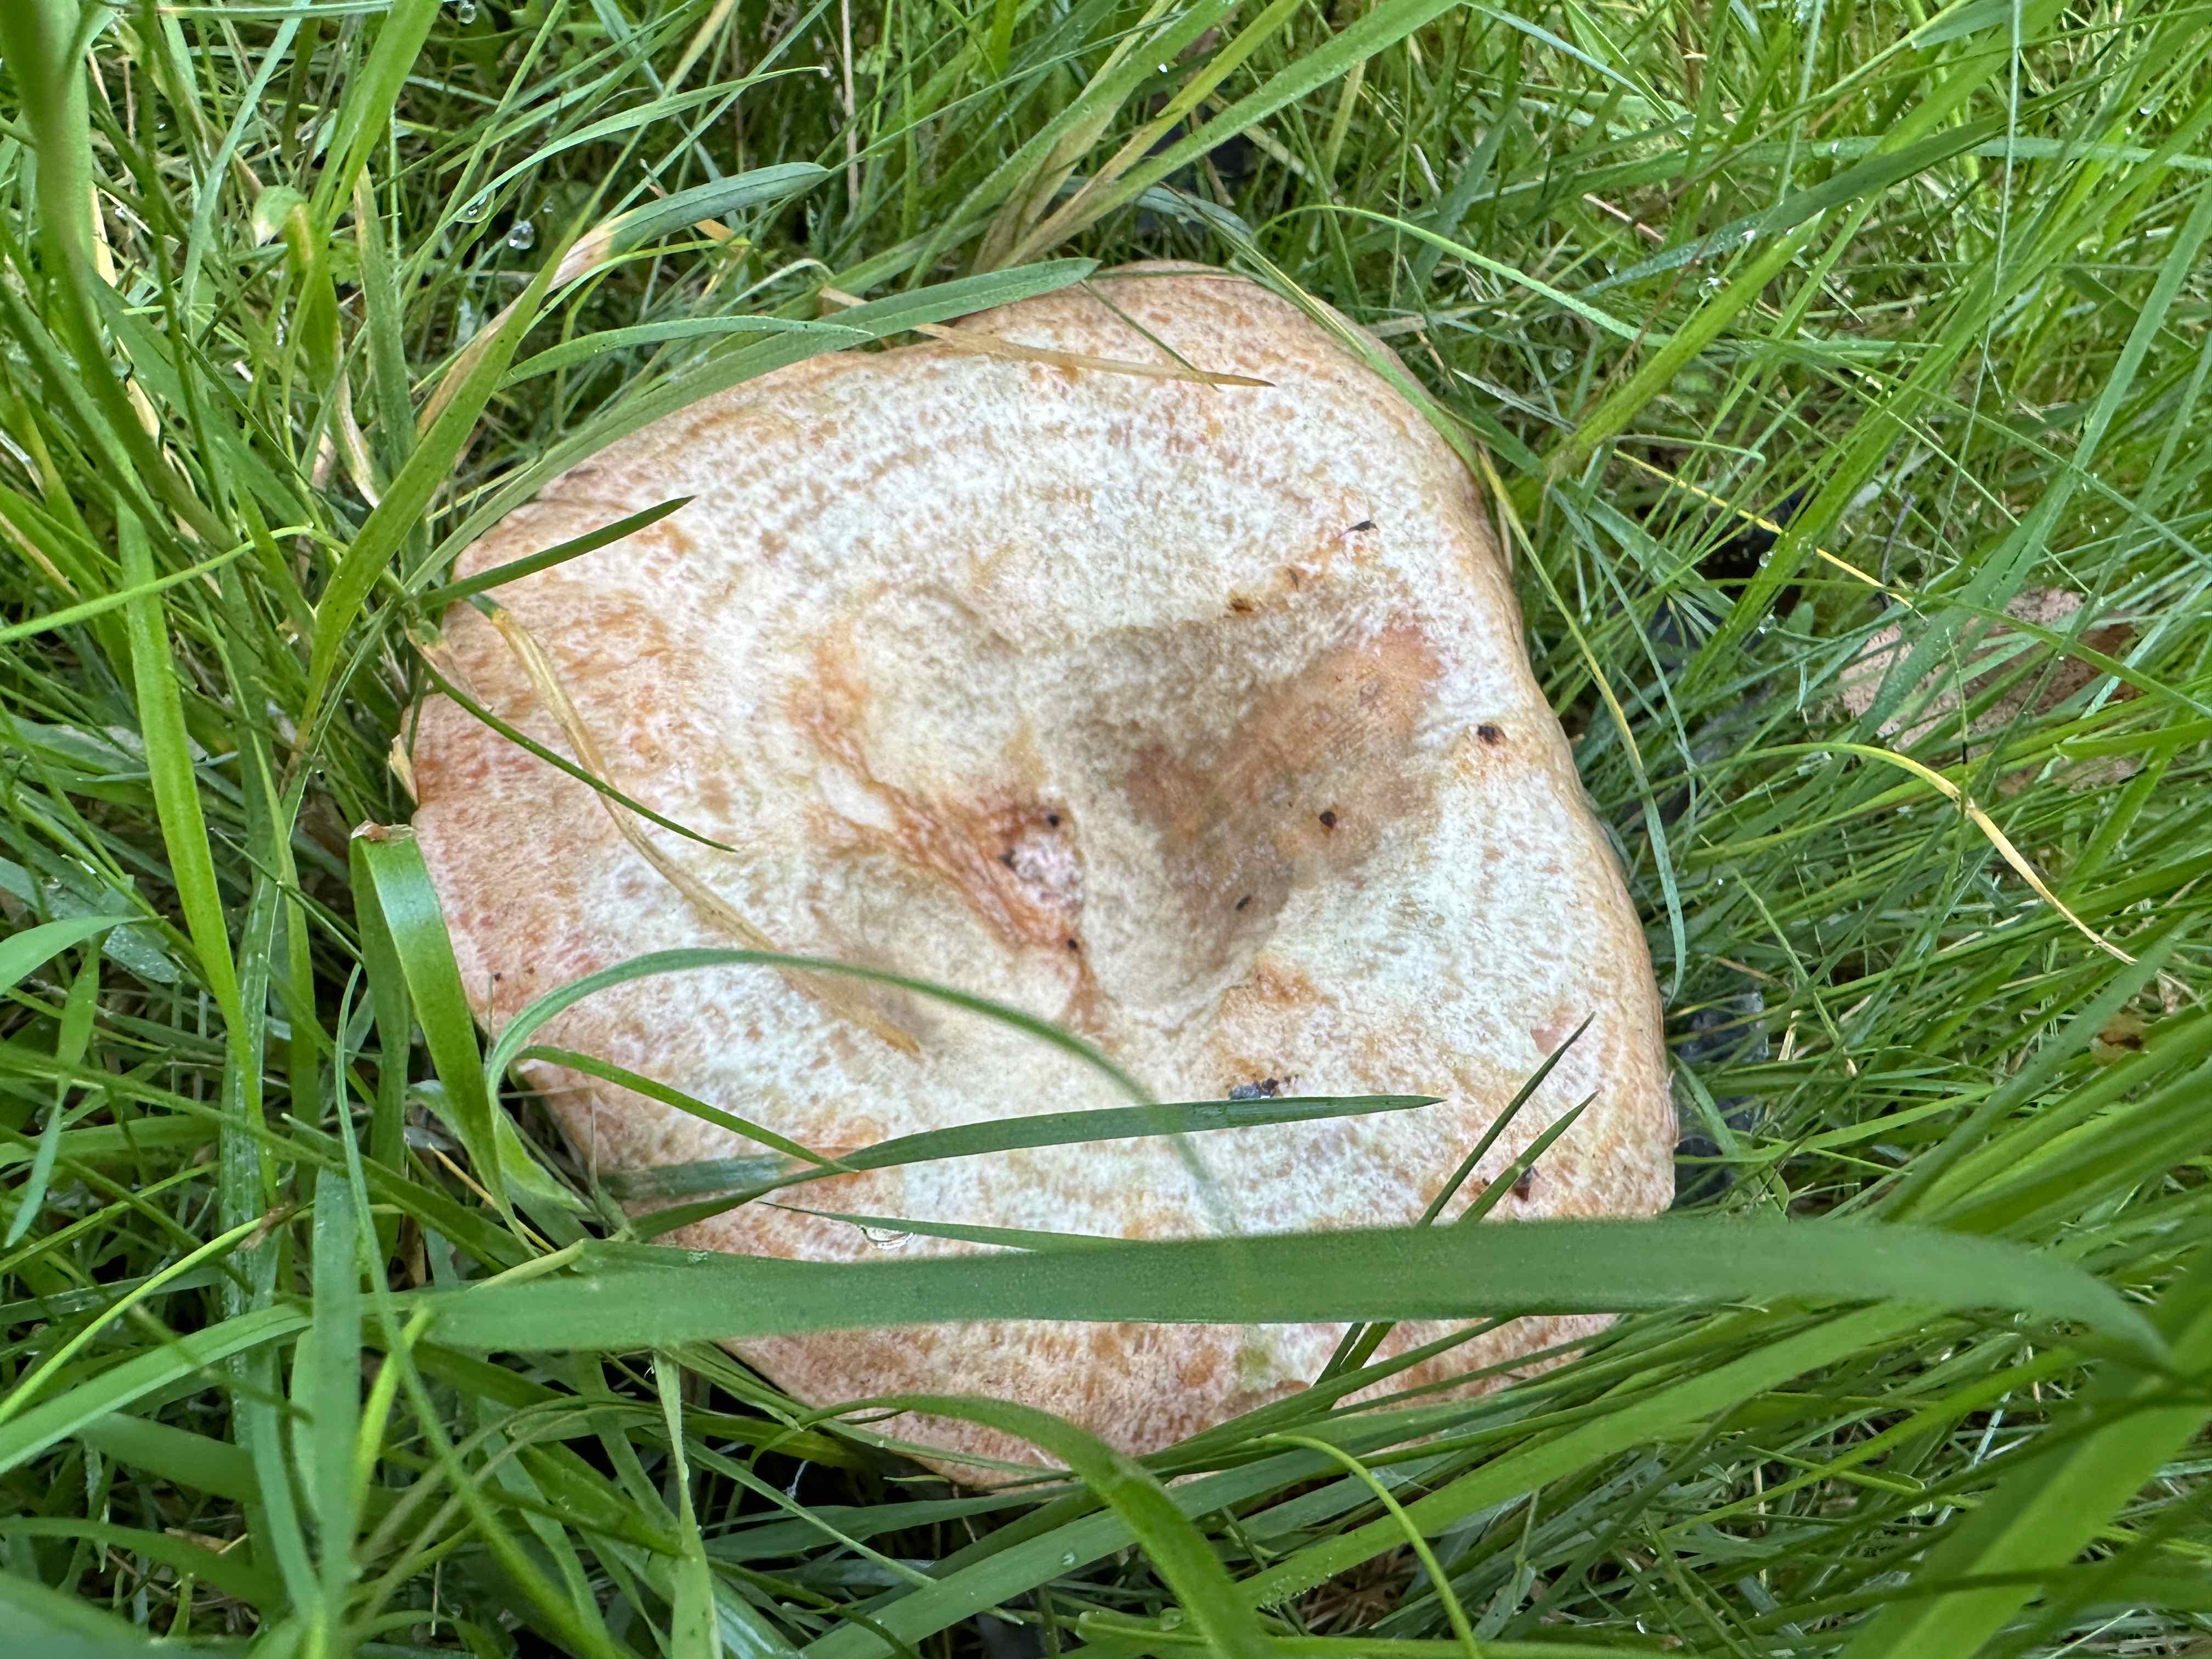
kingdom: Fungi
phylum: Basidiomycota
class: Agaricomycetes
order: Russulales
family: Russulaceae
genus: Lactarius
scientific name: Lactarius deliciosus
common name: velsmagende mælkehat
